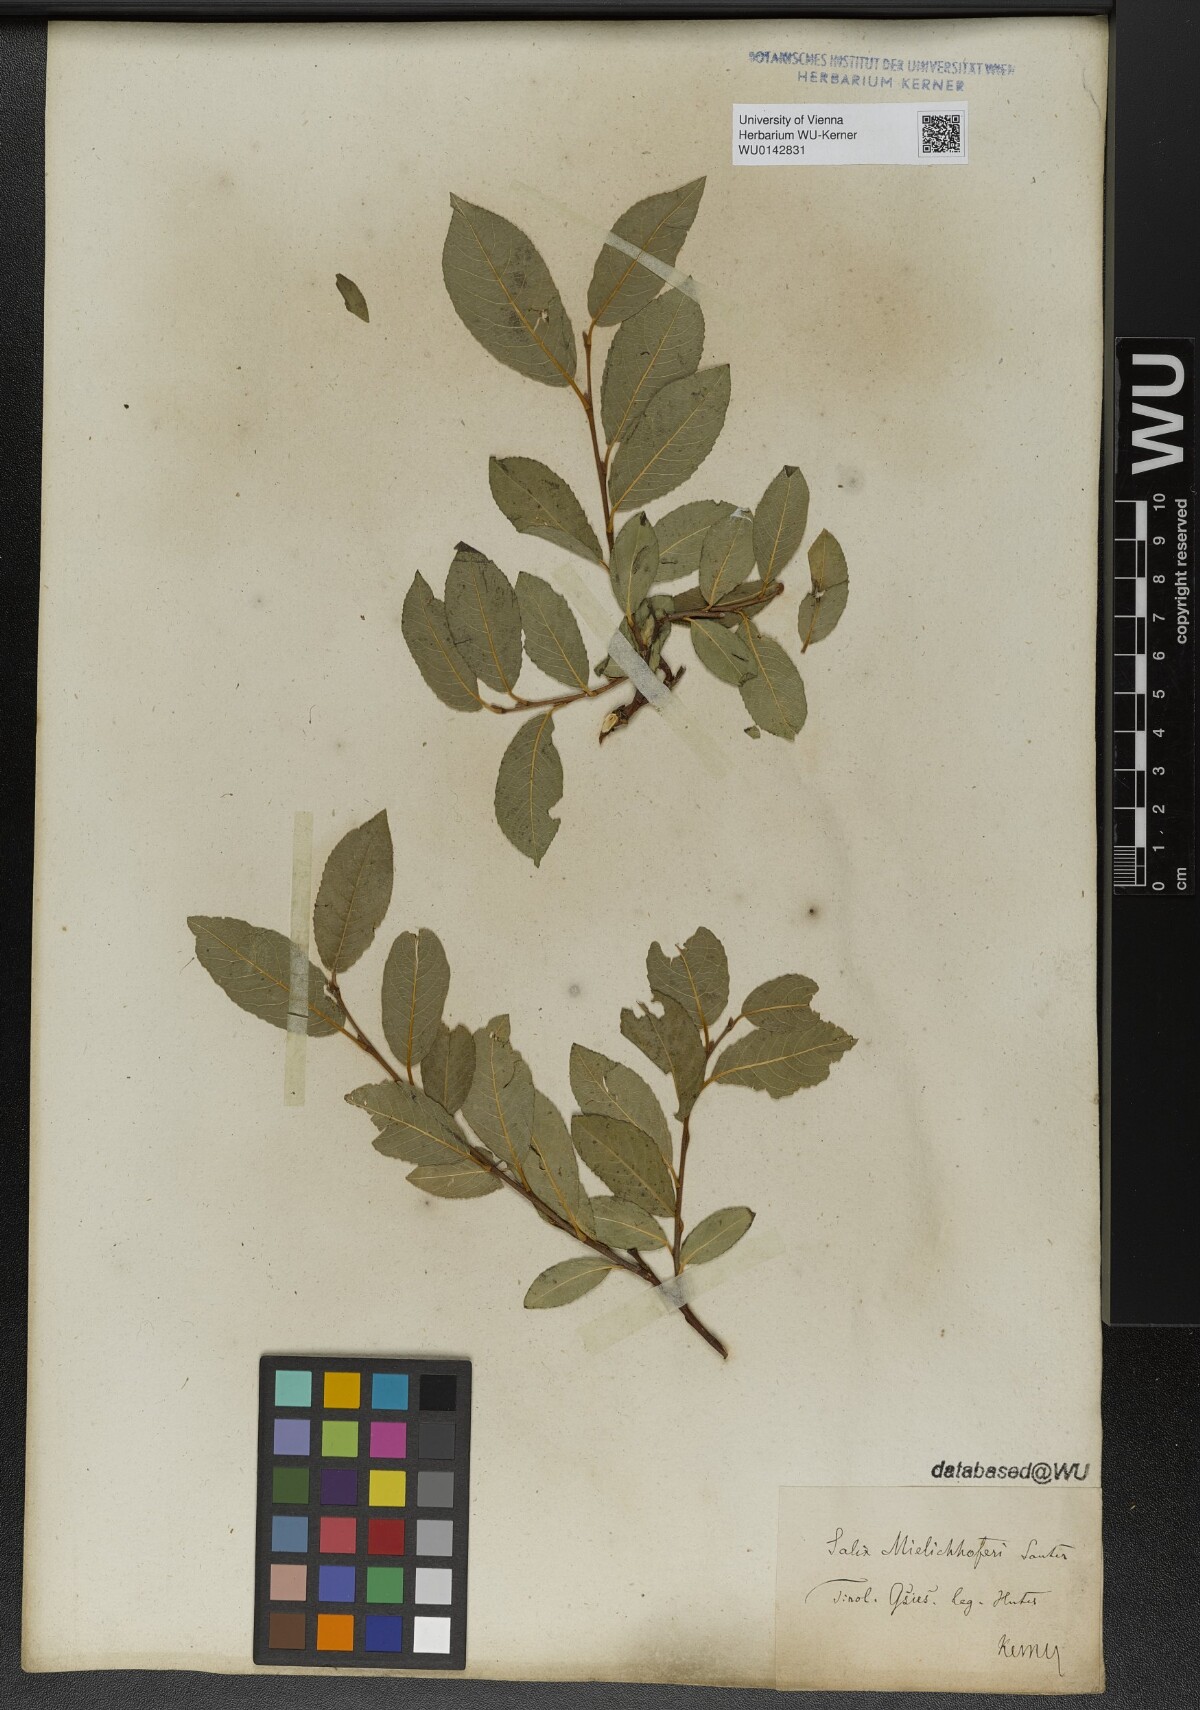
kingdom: Plantae
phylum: Tracheophyta
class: Magnoliopsida
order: Malpighiales
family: Salicaceae
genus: Salix
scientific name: Salix mielichhoferi
